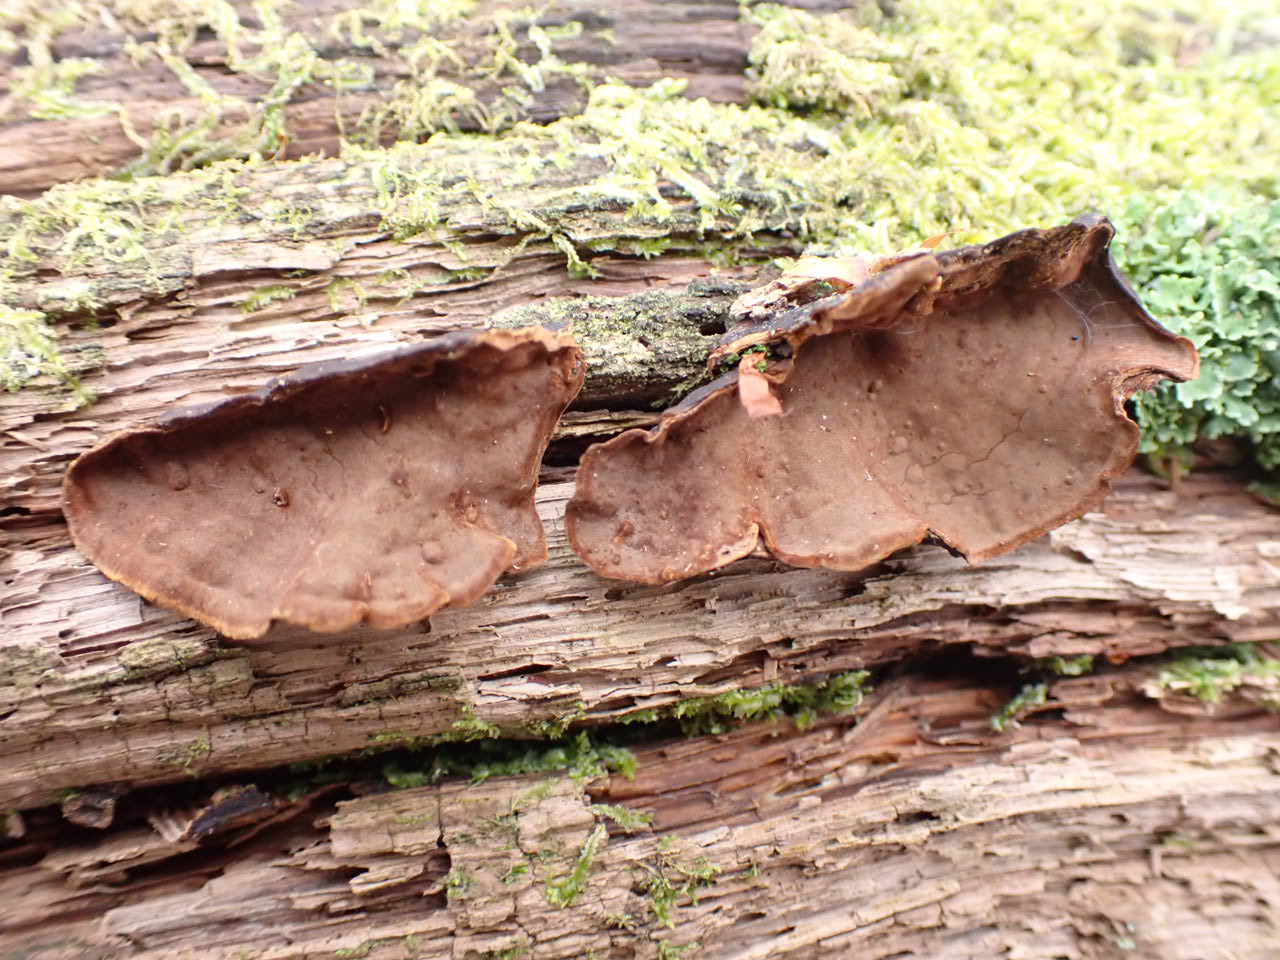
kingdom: Fungi
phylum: Basidiomycota
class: Agaricomycetes
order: Hymenochaetales
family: Hymenochaetaceae
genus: Hymenochaete
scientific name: Hymenochaete rubiginosa
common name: stiv ruslædersvamp
